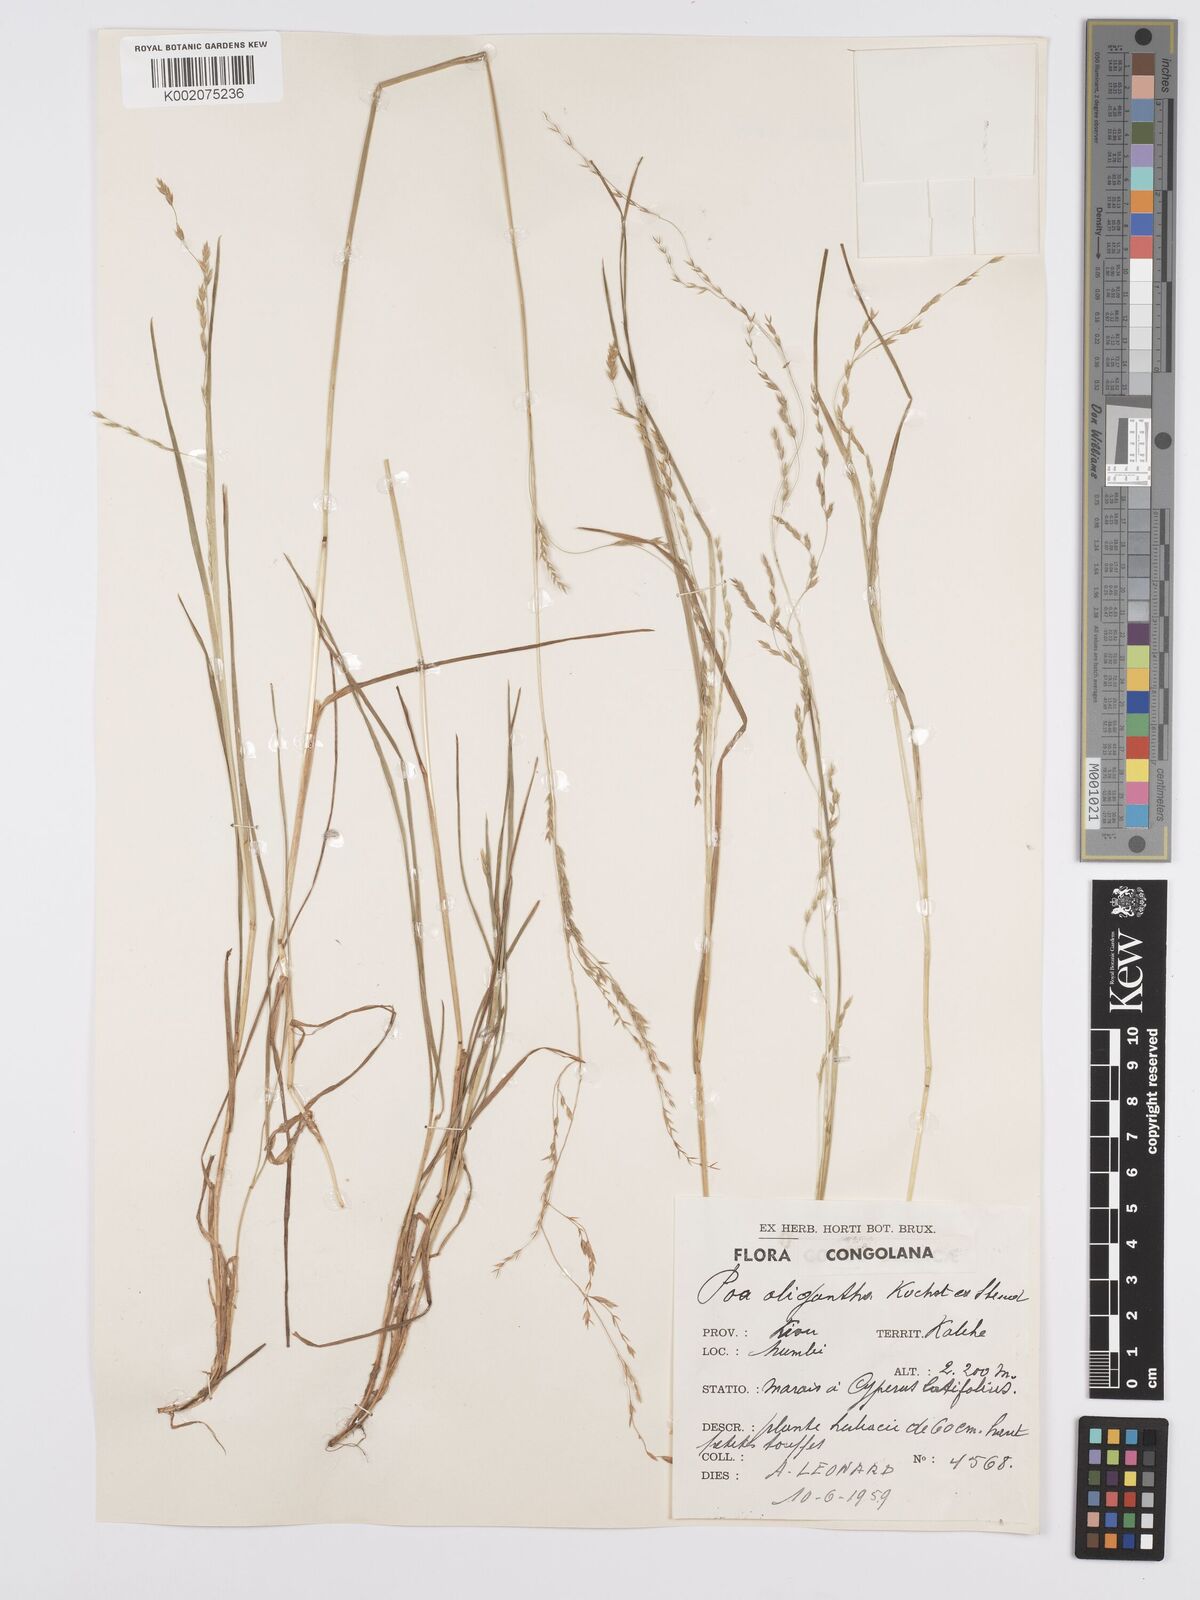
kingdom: Plantae
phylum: Tracheophyta
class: Liliopsida
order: Poales
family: Poaceae
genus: Poa
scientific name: Poa schimperiana
